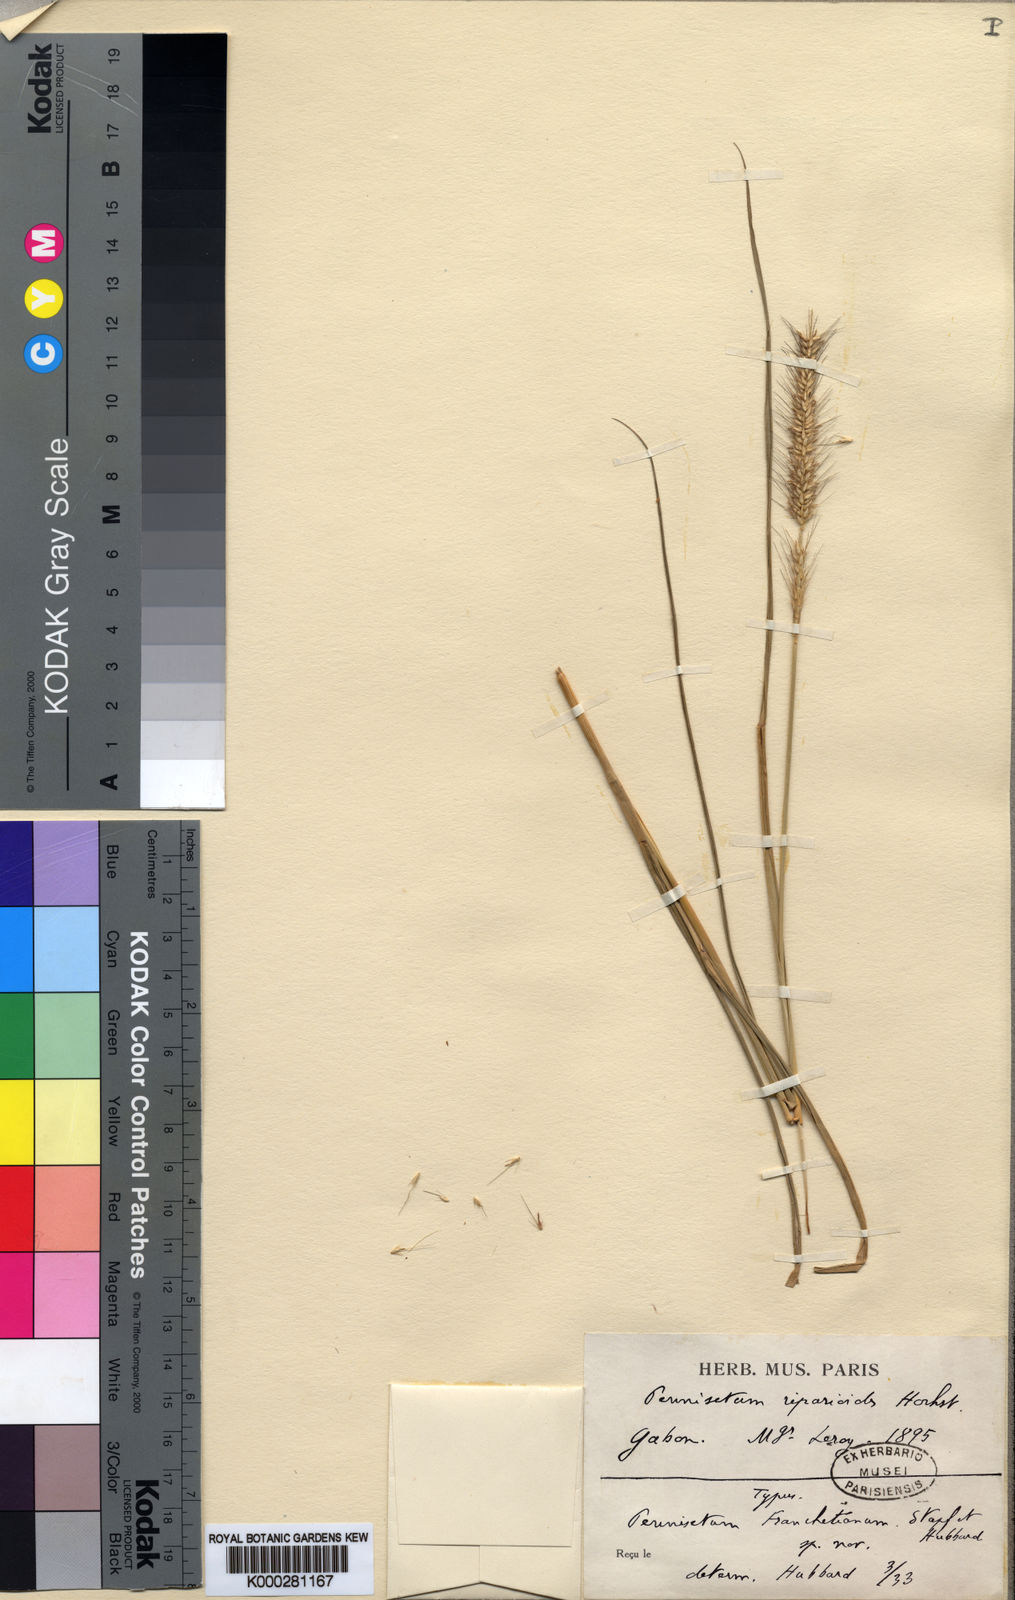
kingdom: Plantae
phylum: Tracheophyta
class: Liliopsida
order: Poales
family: Poaceae
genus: Cenchrus
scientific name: Cenchrus caudatus
